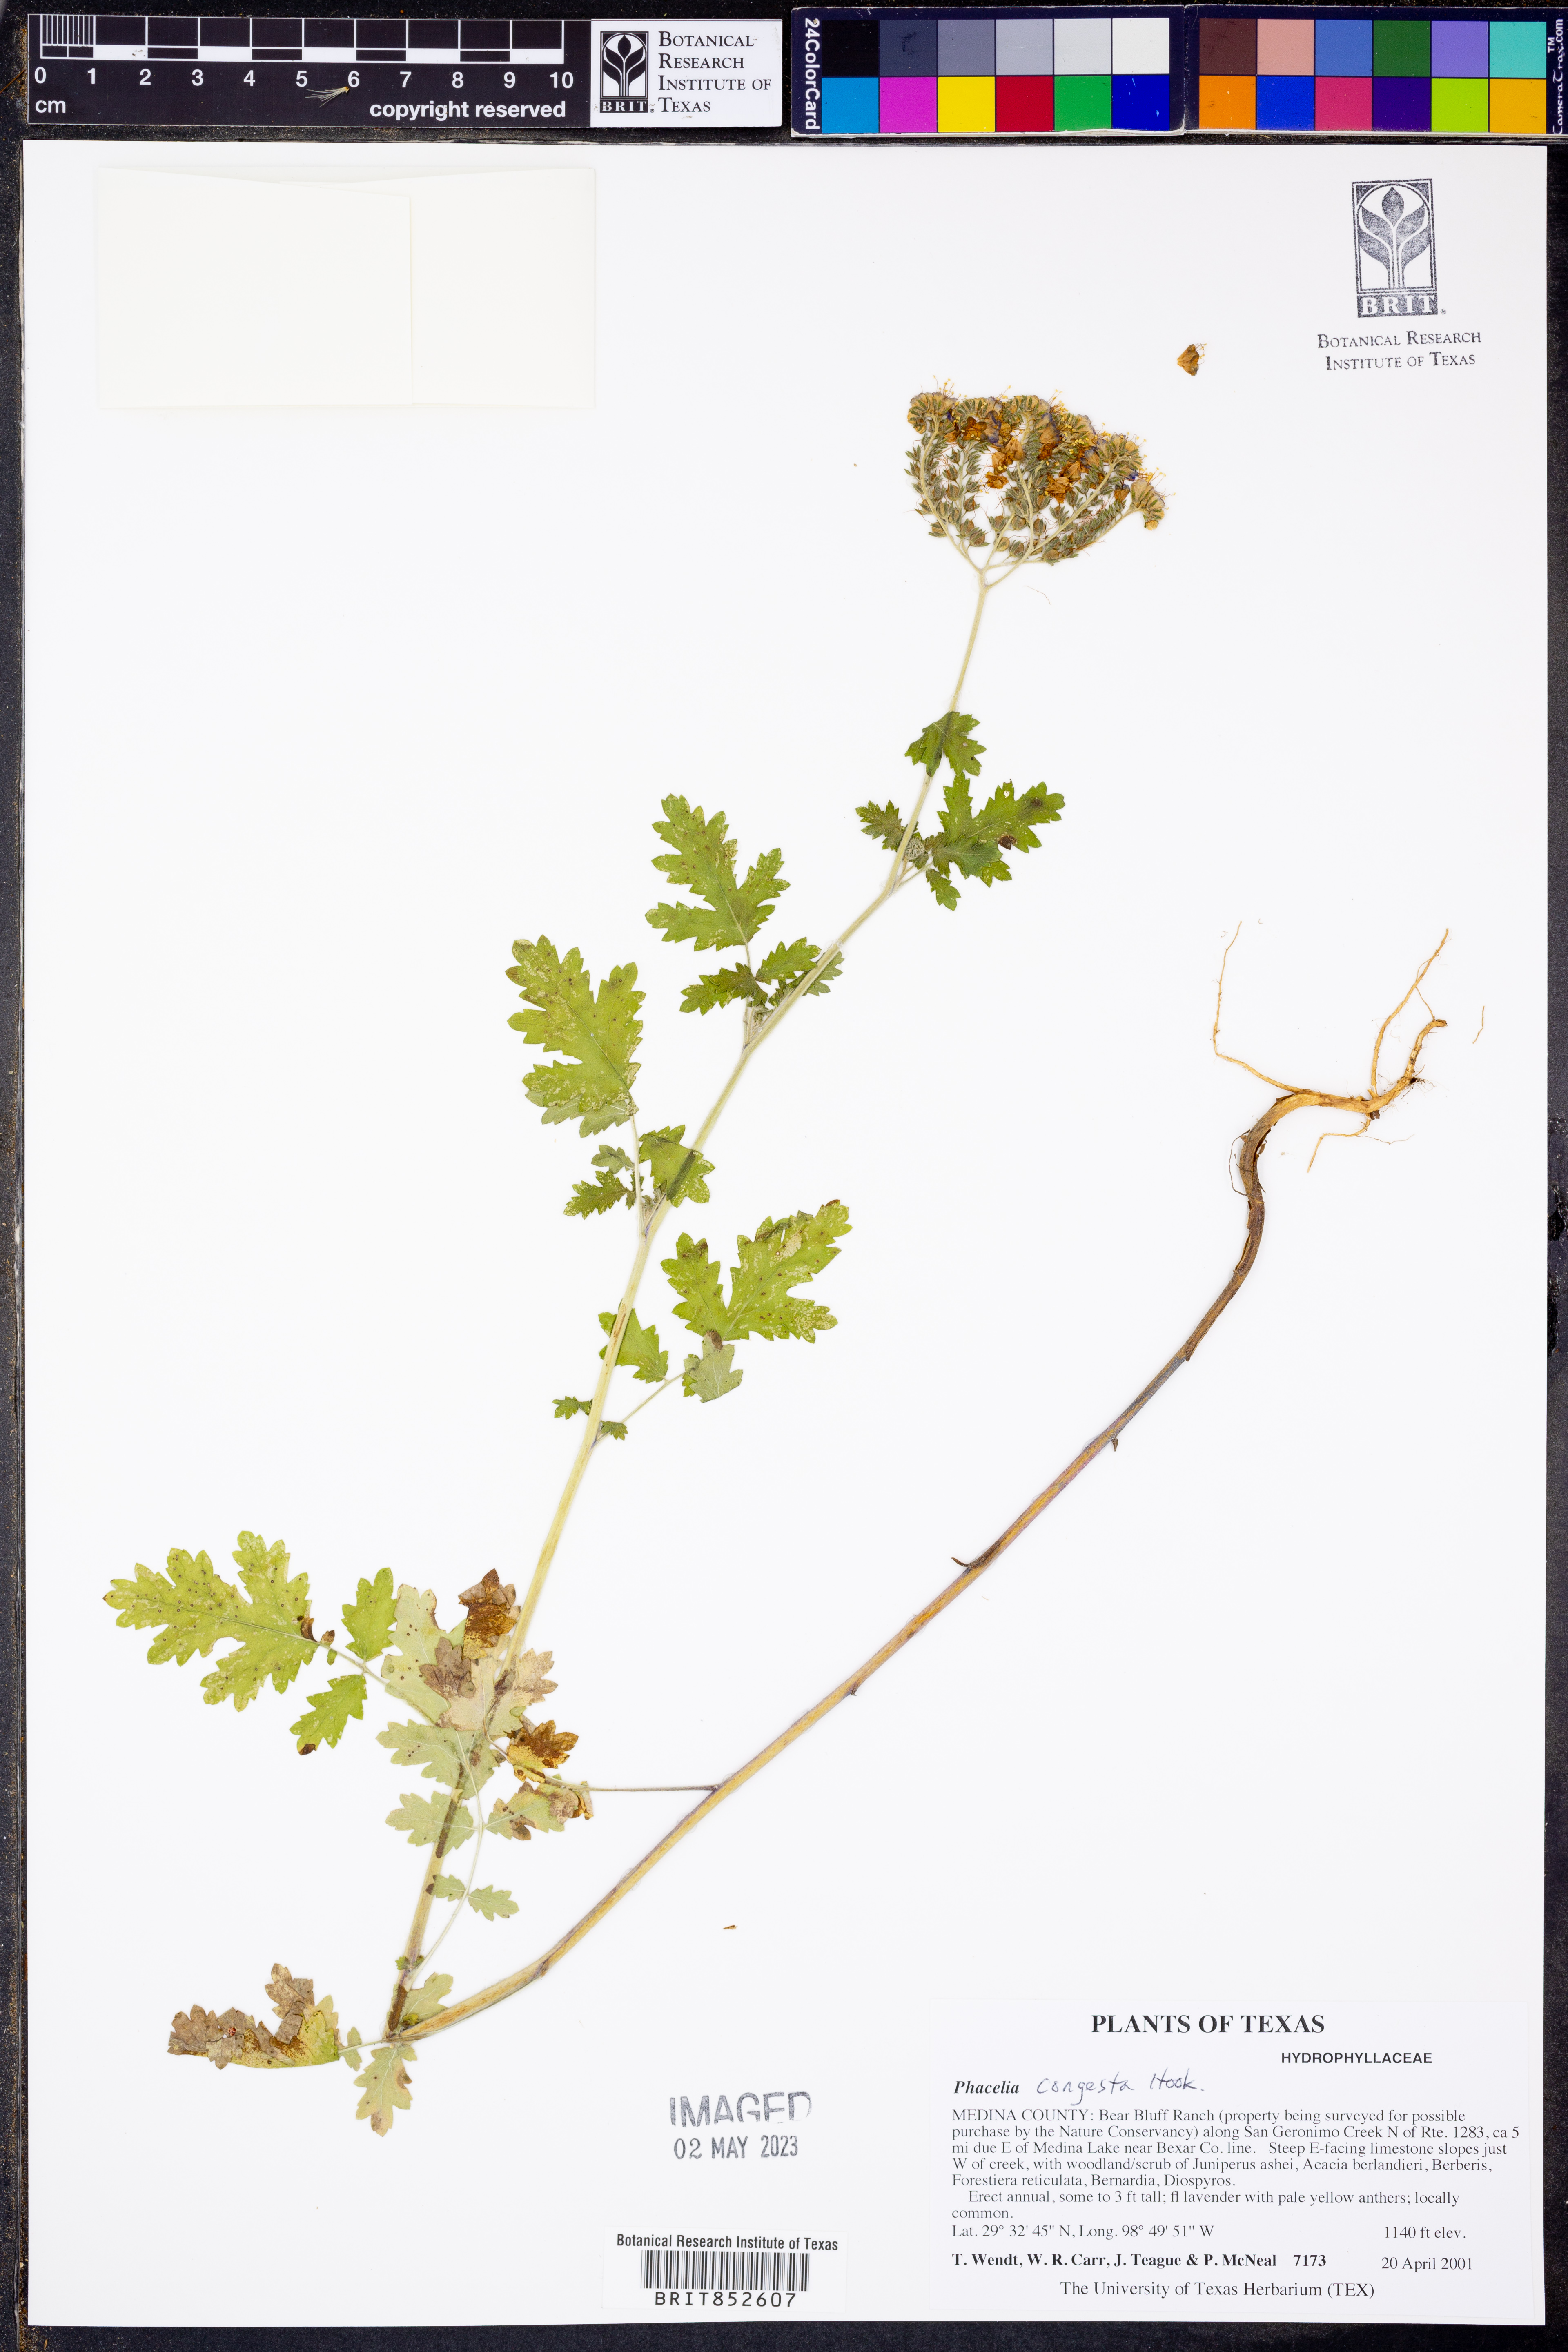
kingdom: Plantae
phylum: Tracheophyta
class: Magnoliopsida
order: Boraginales
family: Hydrophyllaceae
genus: Phacelia
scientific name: Phacelia congesta
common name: Blue curls
